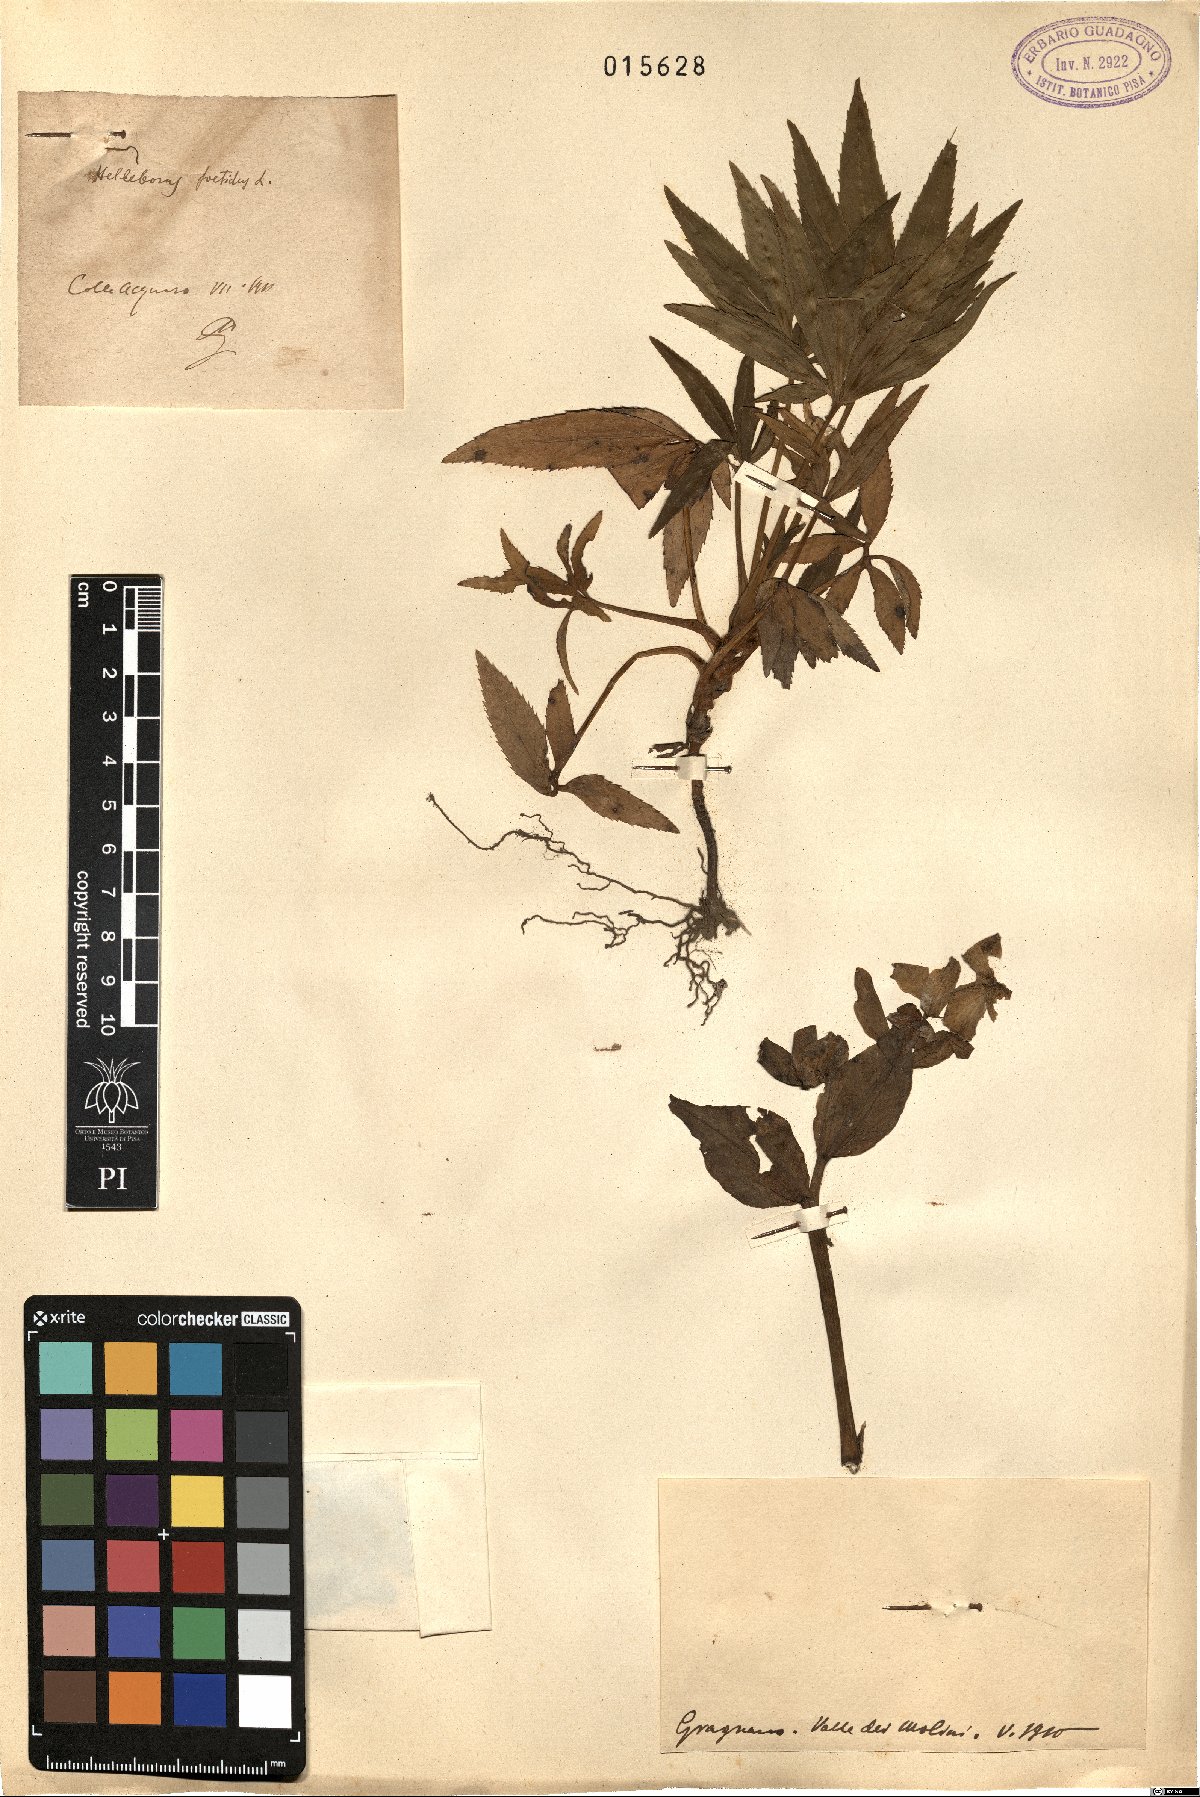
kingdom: Plantae
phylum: Tracheophyta
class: Magnoliopsida
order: Ranunculales
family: Ranunculaceae
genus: Helleborus
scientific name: Helleborus
